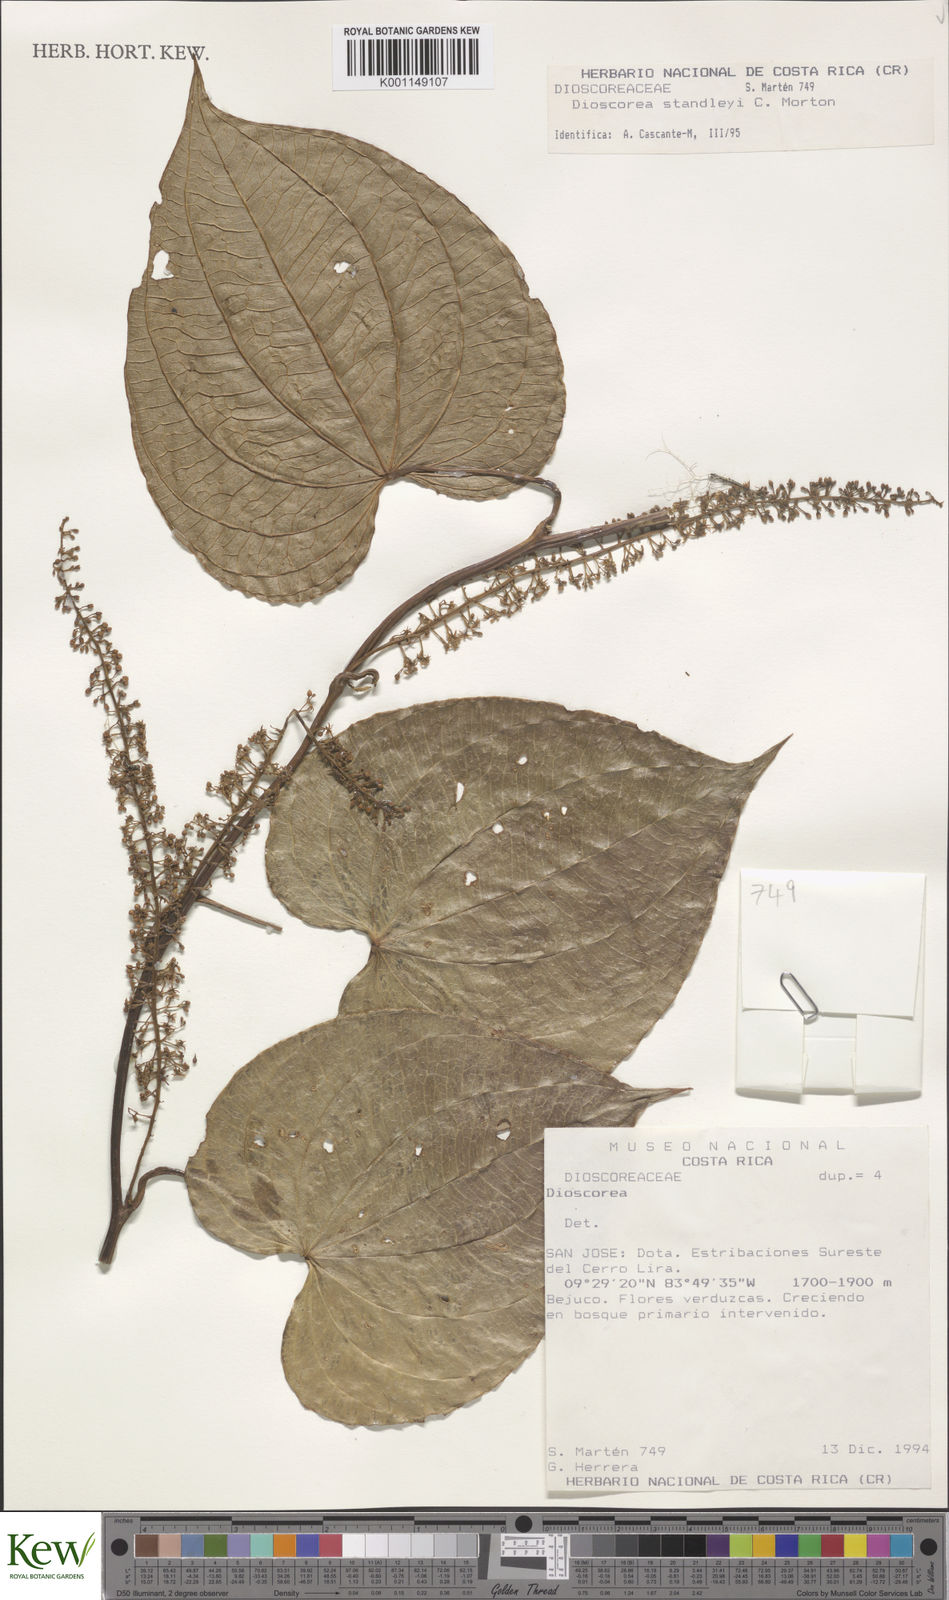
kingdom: Plantae
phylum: Tracheophyta
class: Liliopsida
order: Dioscoreales
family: Dioscoreaceae
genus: Dioscorea
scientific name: Dioscorea
